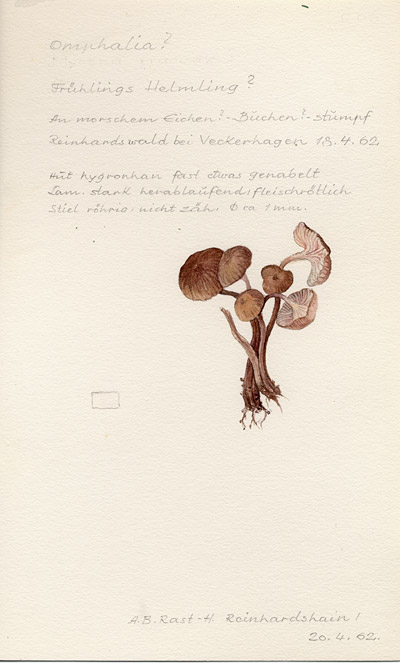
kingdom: Fungi
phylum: Basidiomycota
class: Agaricomycetes
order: Agaricales
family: Mycenaceae
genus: Mycena
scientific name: Mycena
